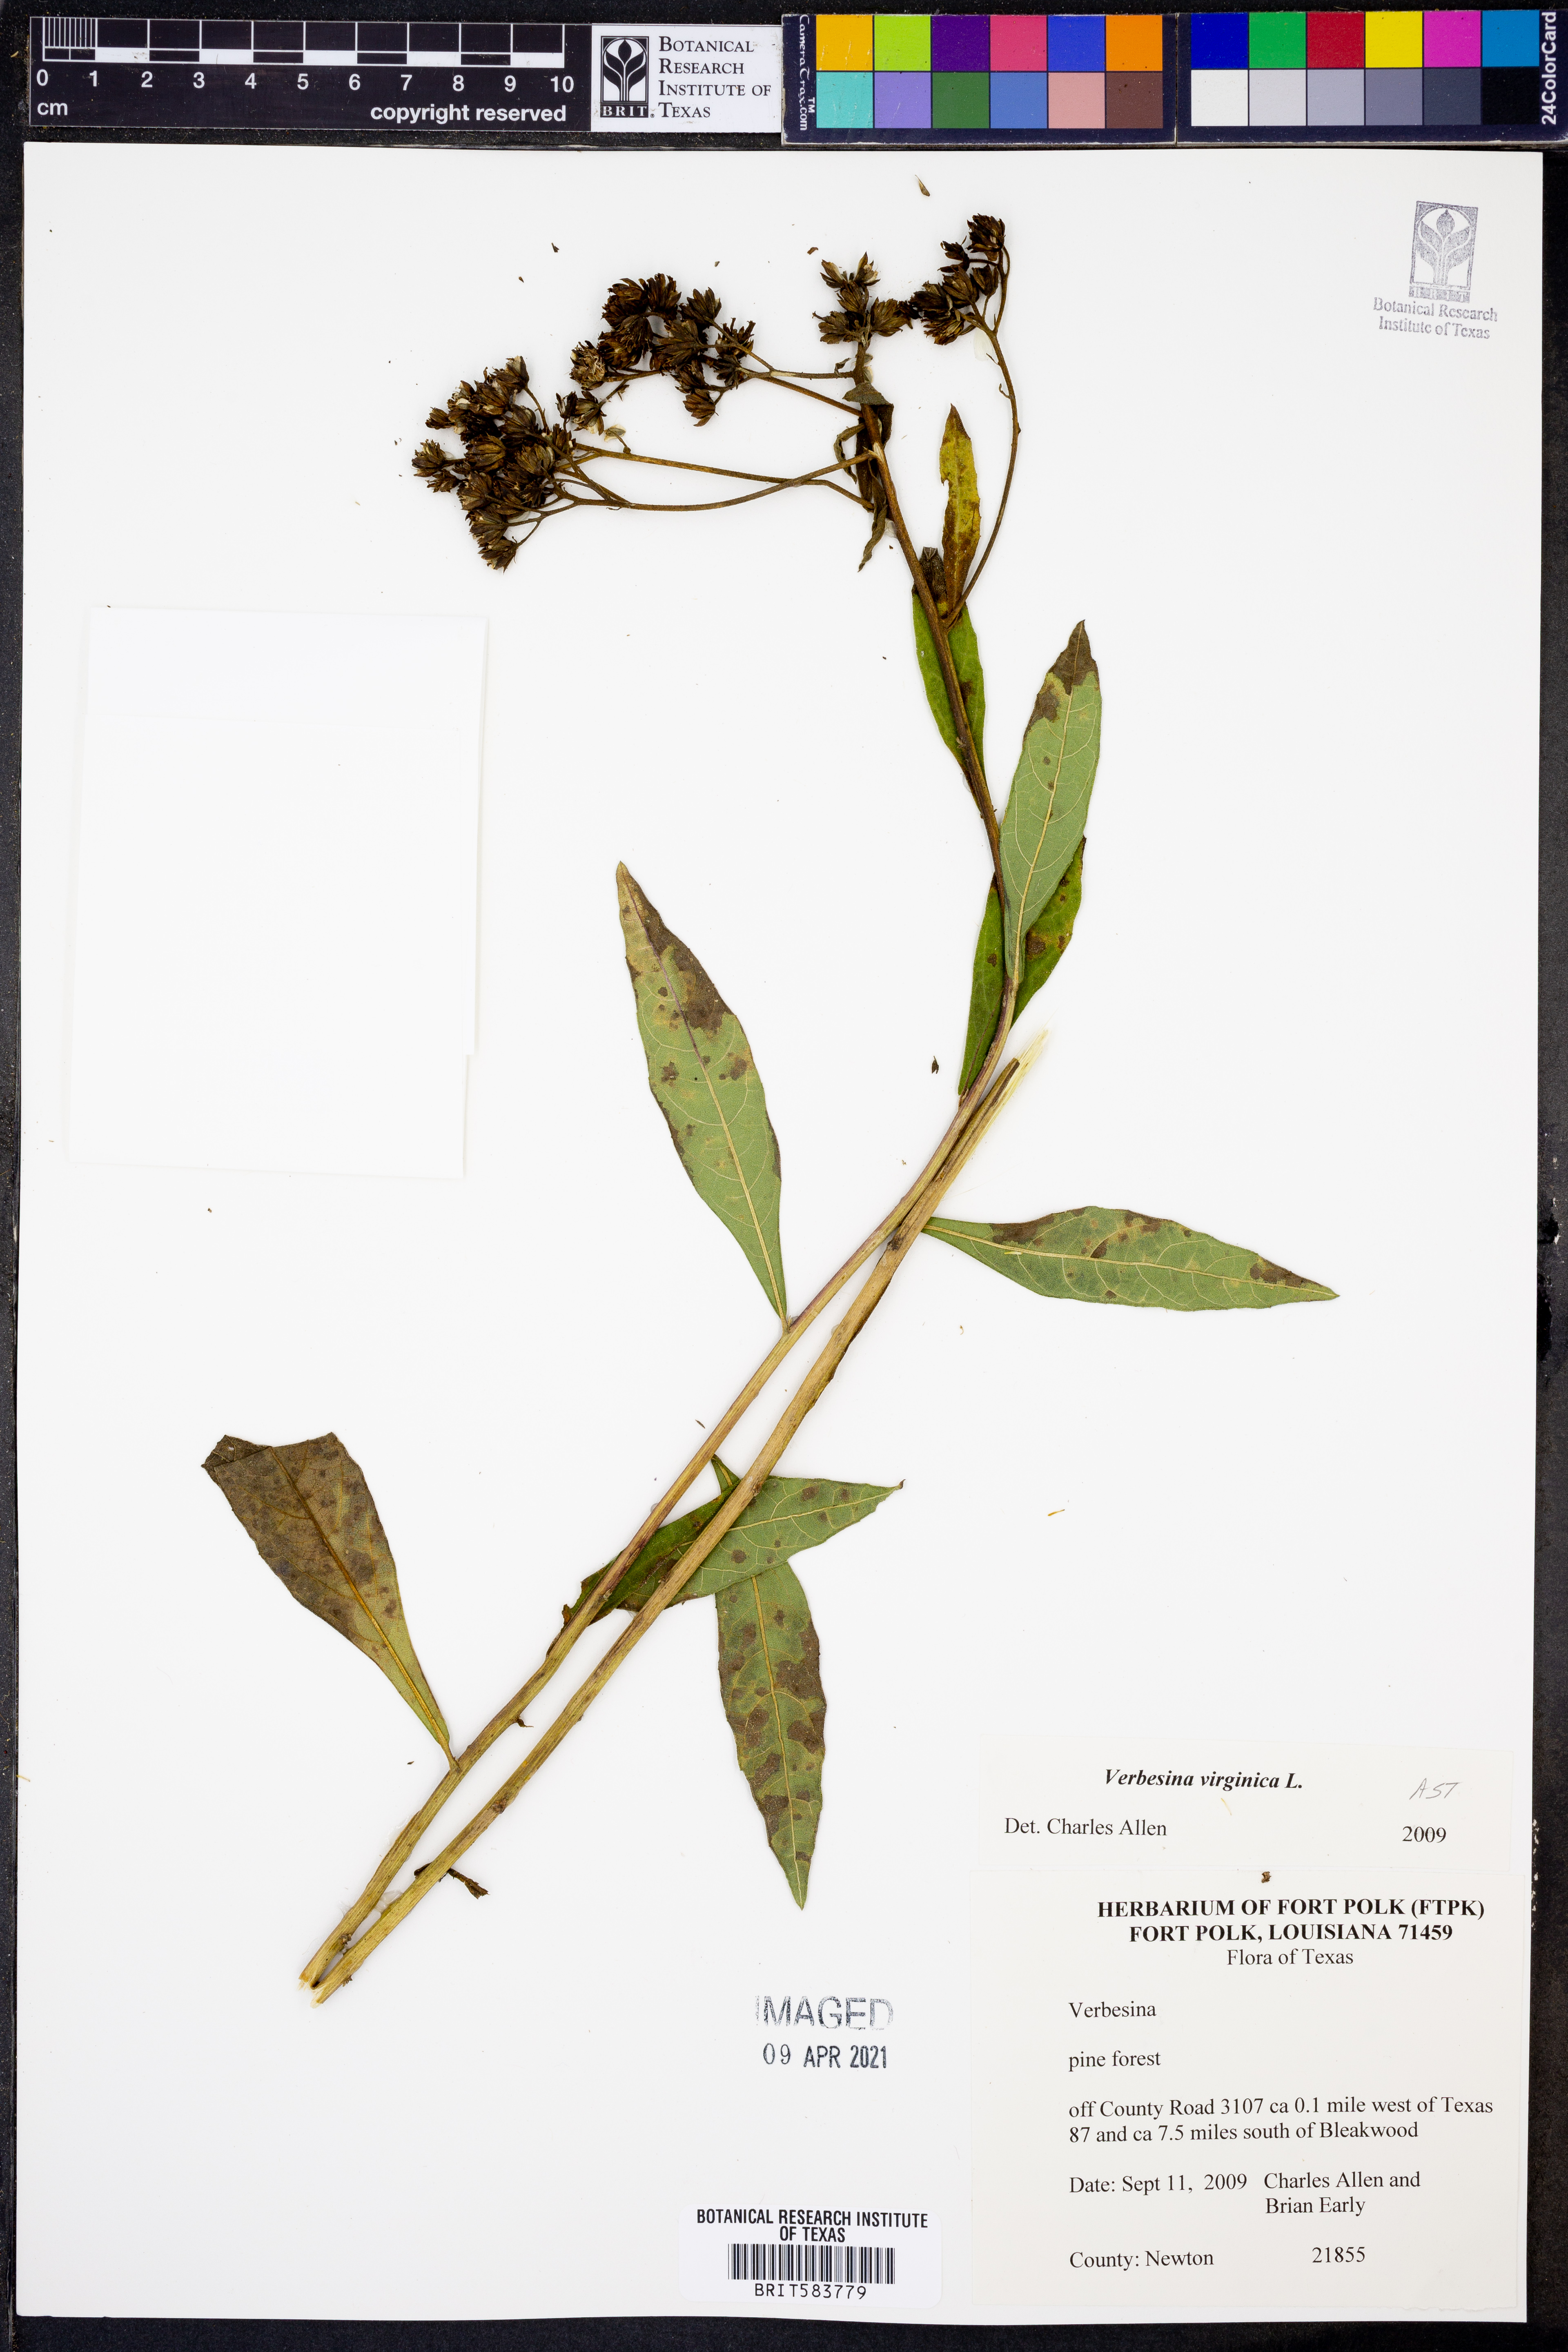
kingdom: Plantae
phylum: Tracheophyta
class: Magnoliopsida
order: Asterales
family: Asteraceae
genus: Verbesina
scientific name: Verbesina virginica
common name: Frostweed
